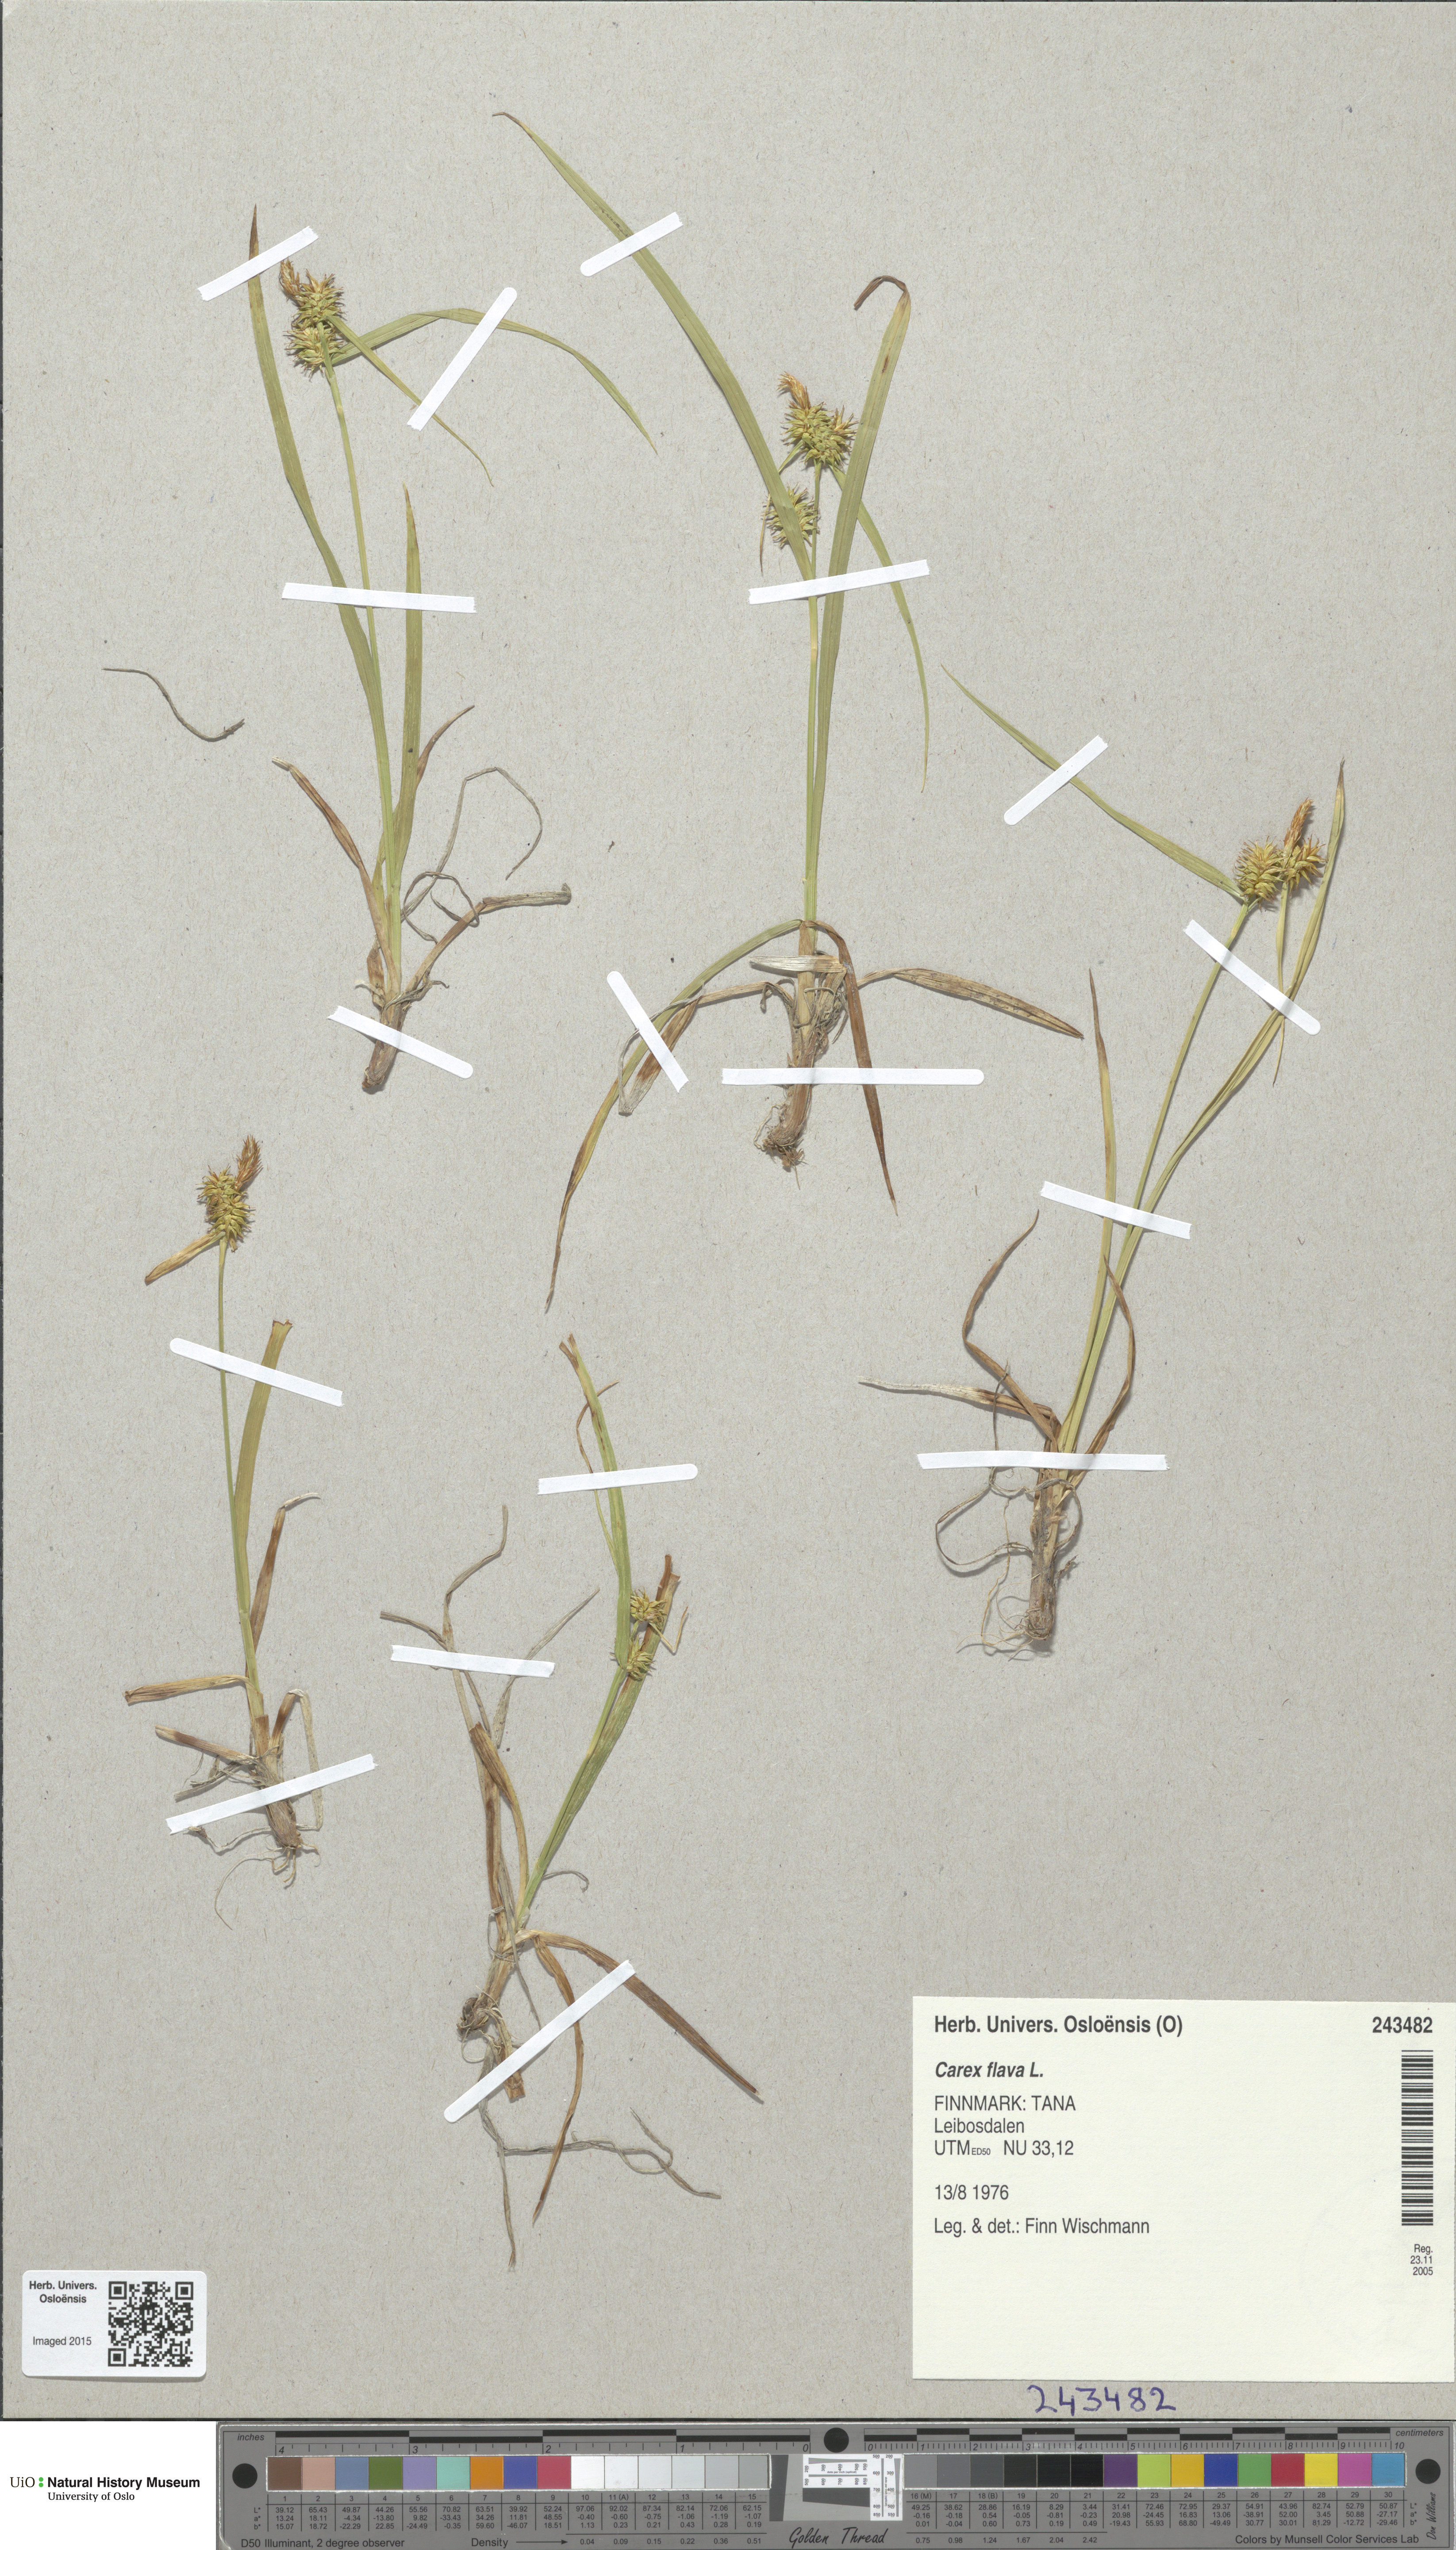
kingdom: Plantae
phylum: Tracheophyta
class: Liliopsida
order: Poales
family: Cyperaceae
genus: Carex
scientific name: Carex flava
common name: Large yellow-sedge
